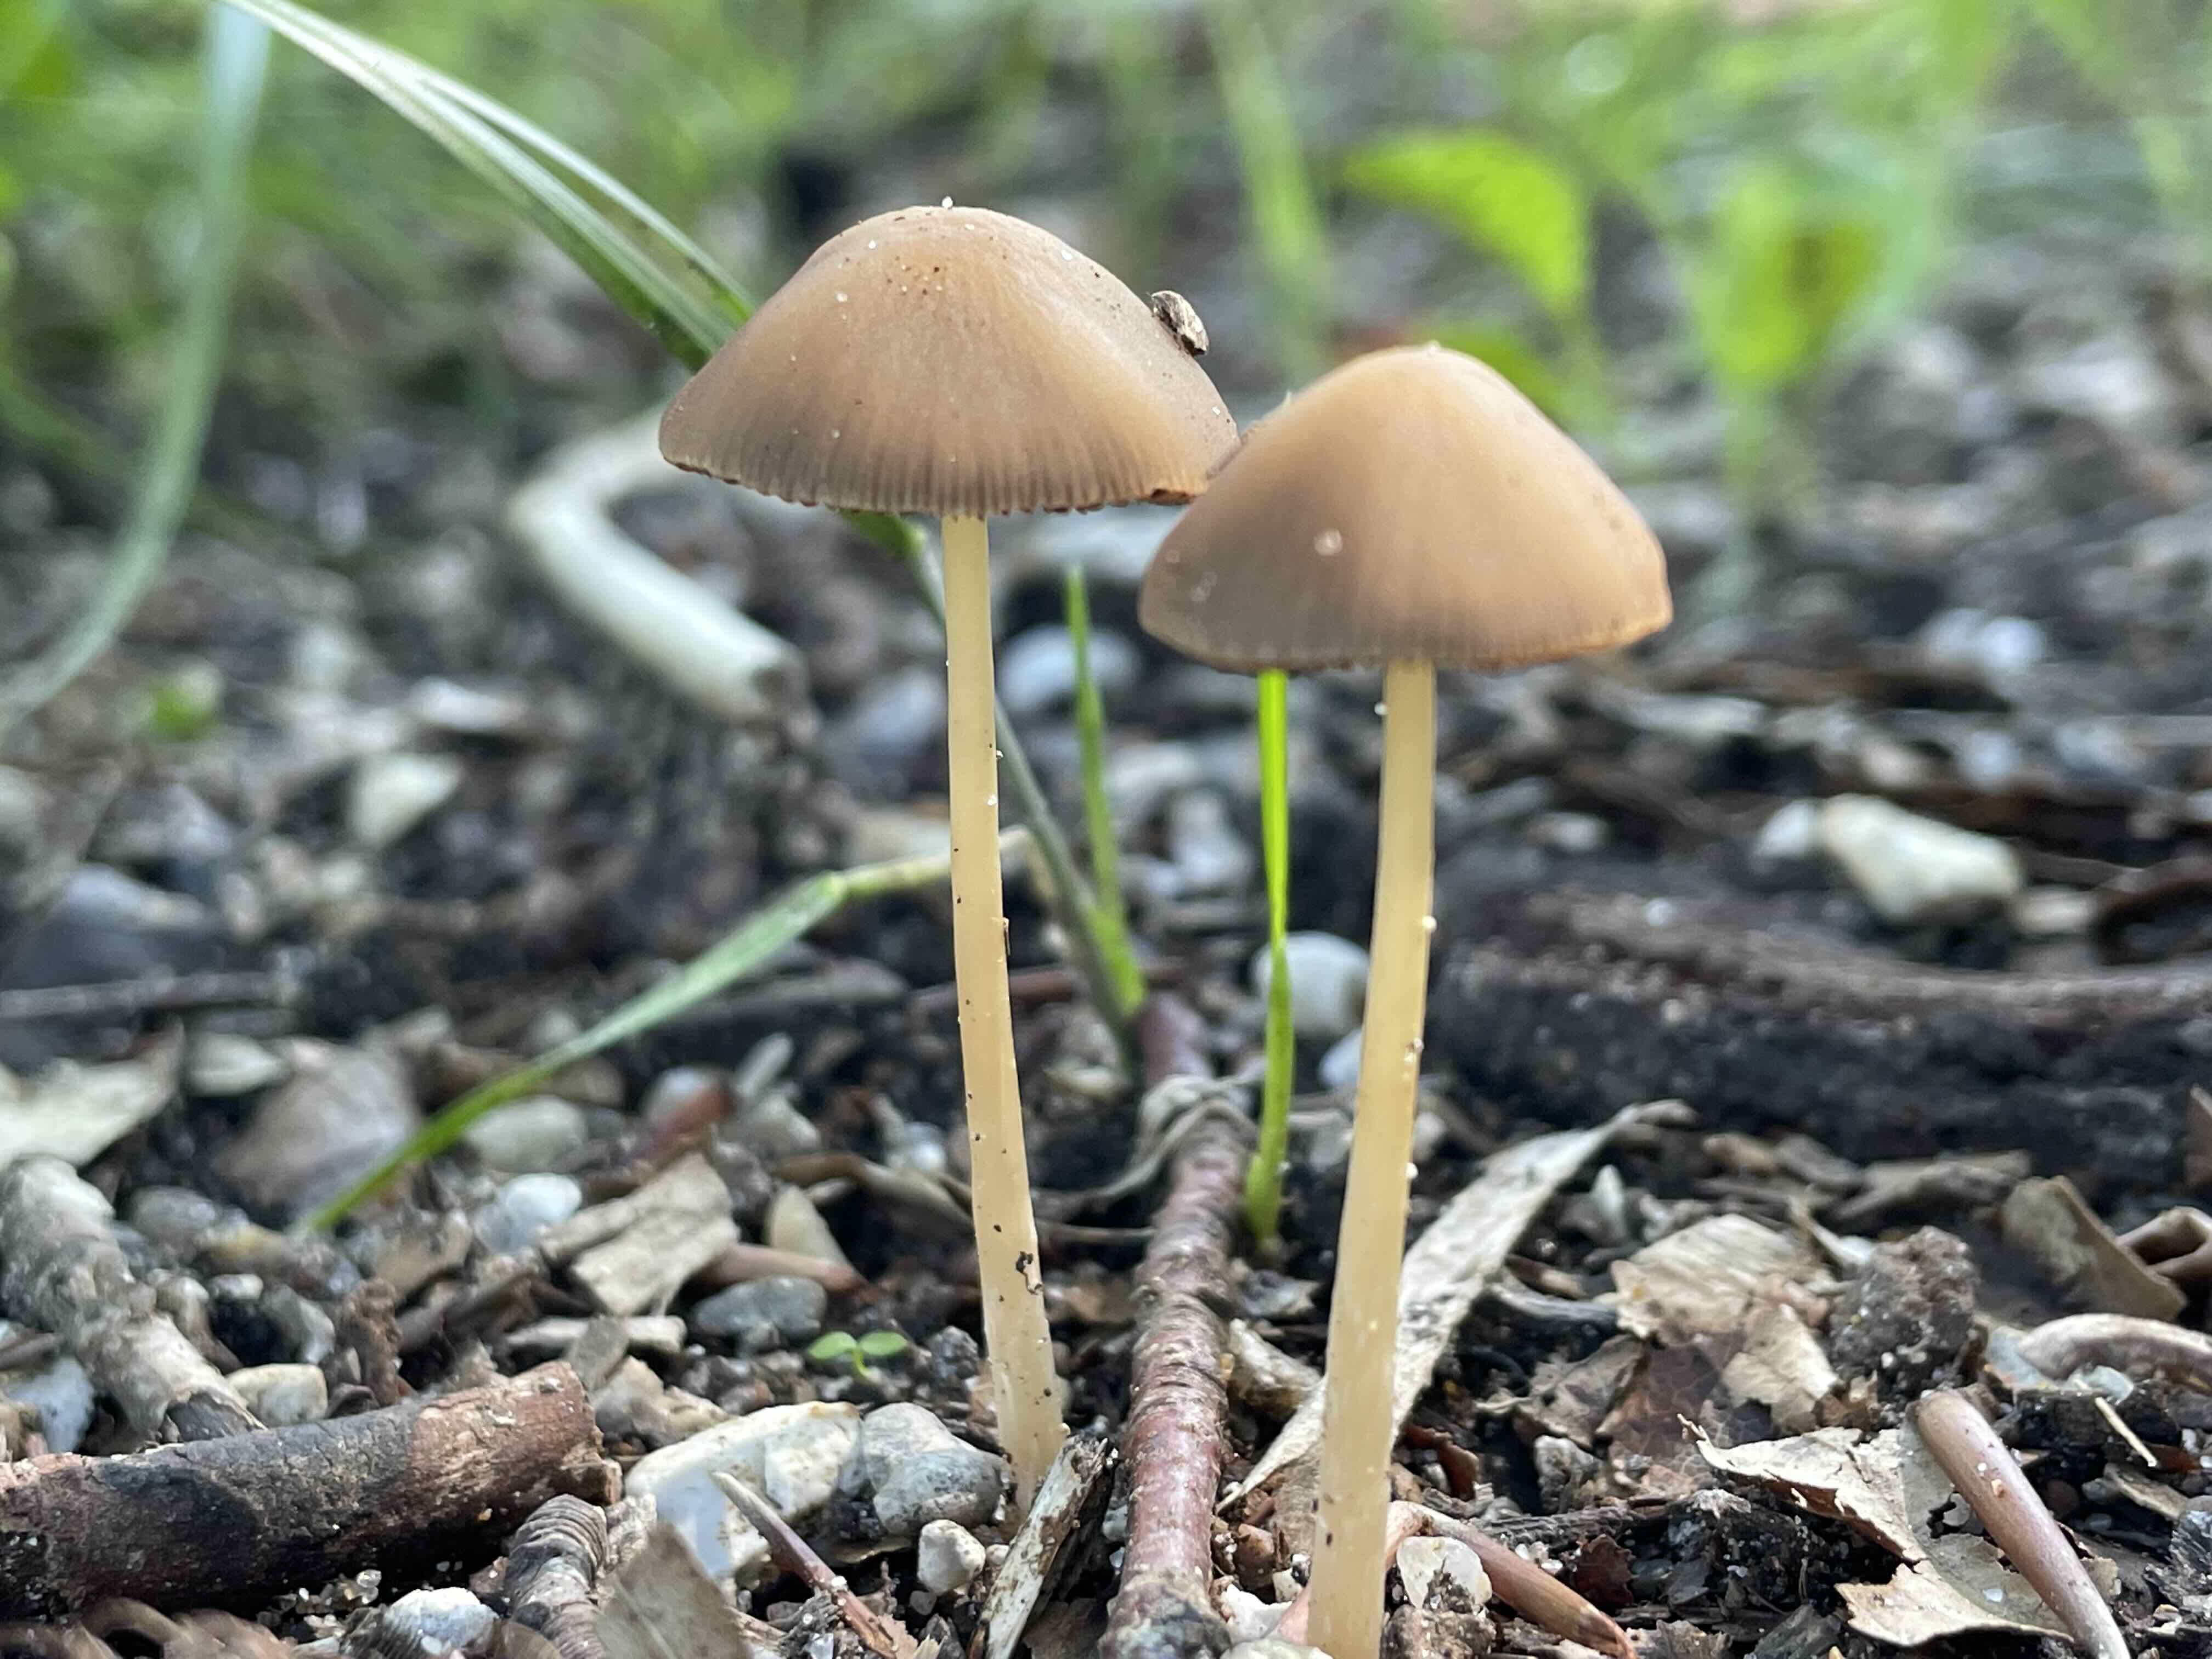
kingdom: Fungi
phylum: Basidiomycota
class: Agaricomycetes
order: Agaricales
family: Psathyrellaceae
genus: Psathyrella
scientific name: Psathyrella
